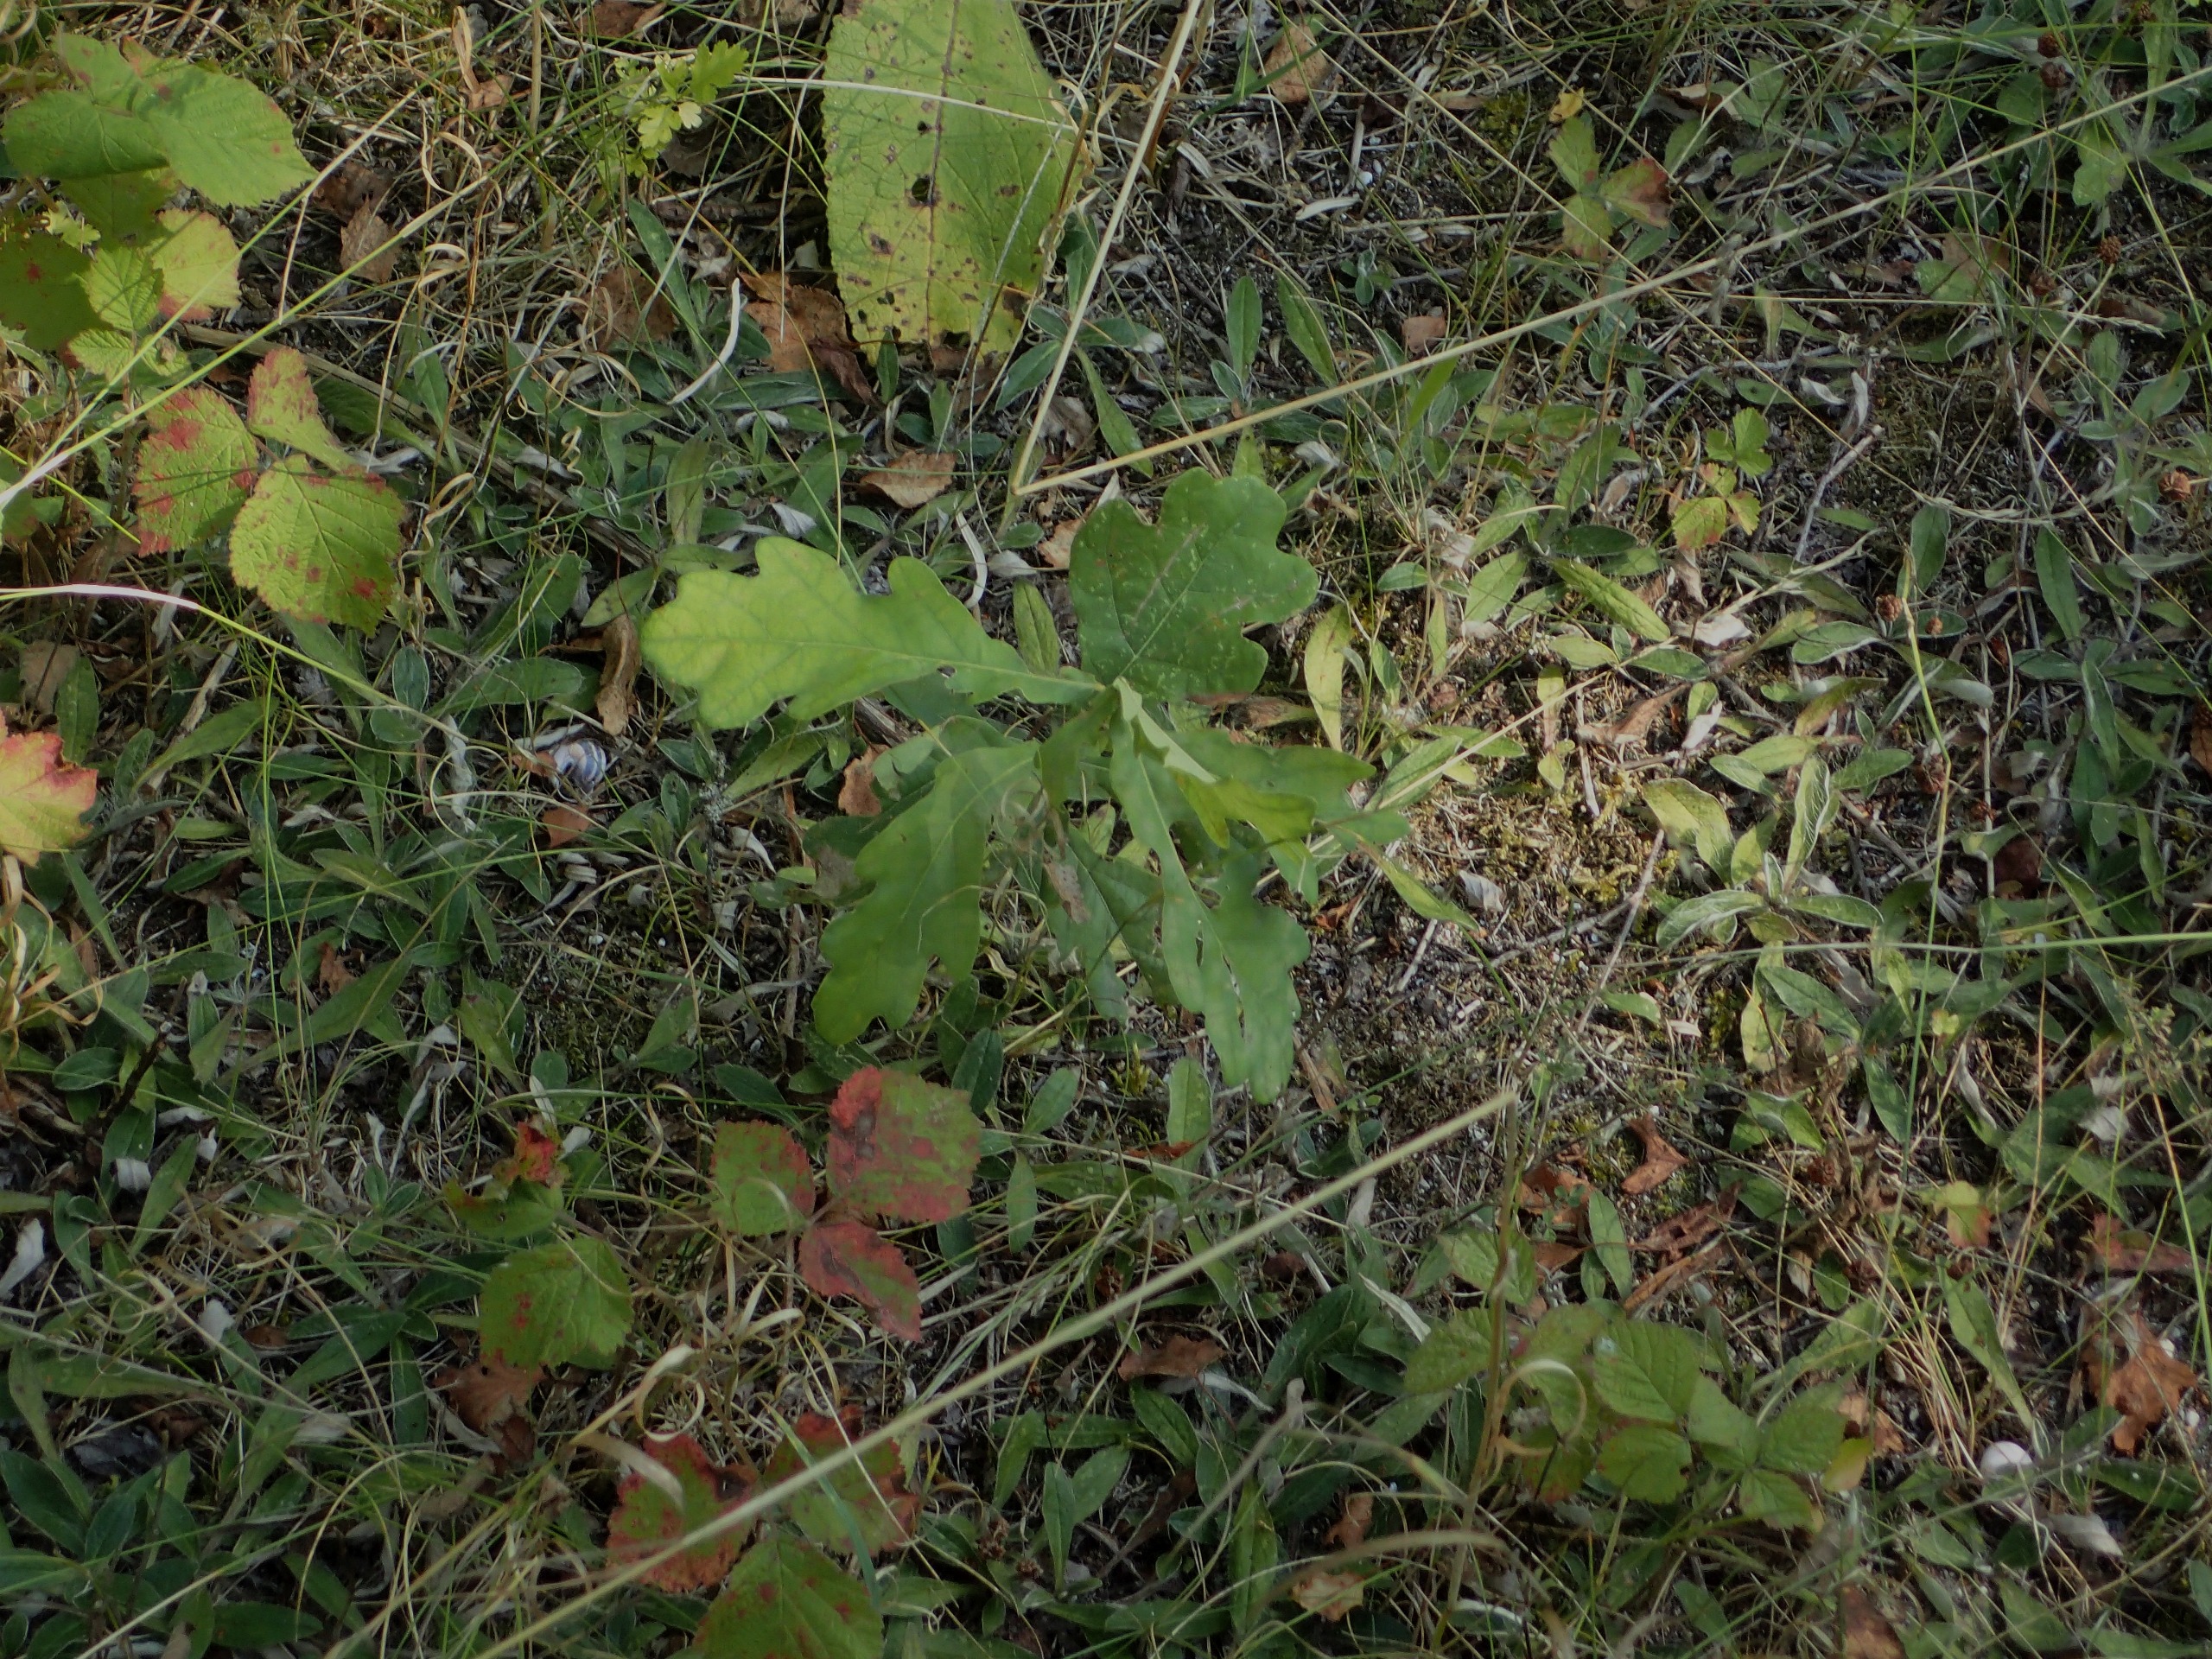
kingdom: Plantae
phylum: Tracheophyta
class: Magnoliopsida
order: Fagales
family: Fagaceae
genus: Quercus
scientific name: Quercus robur
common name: Stilk-eg/almindelig eg
